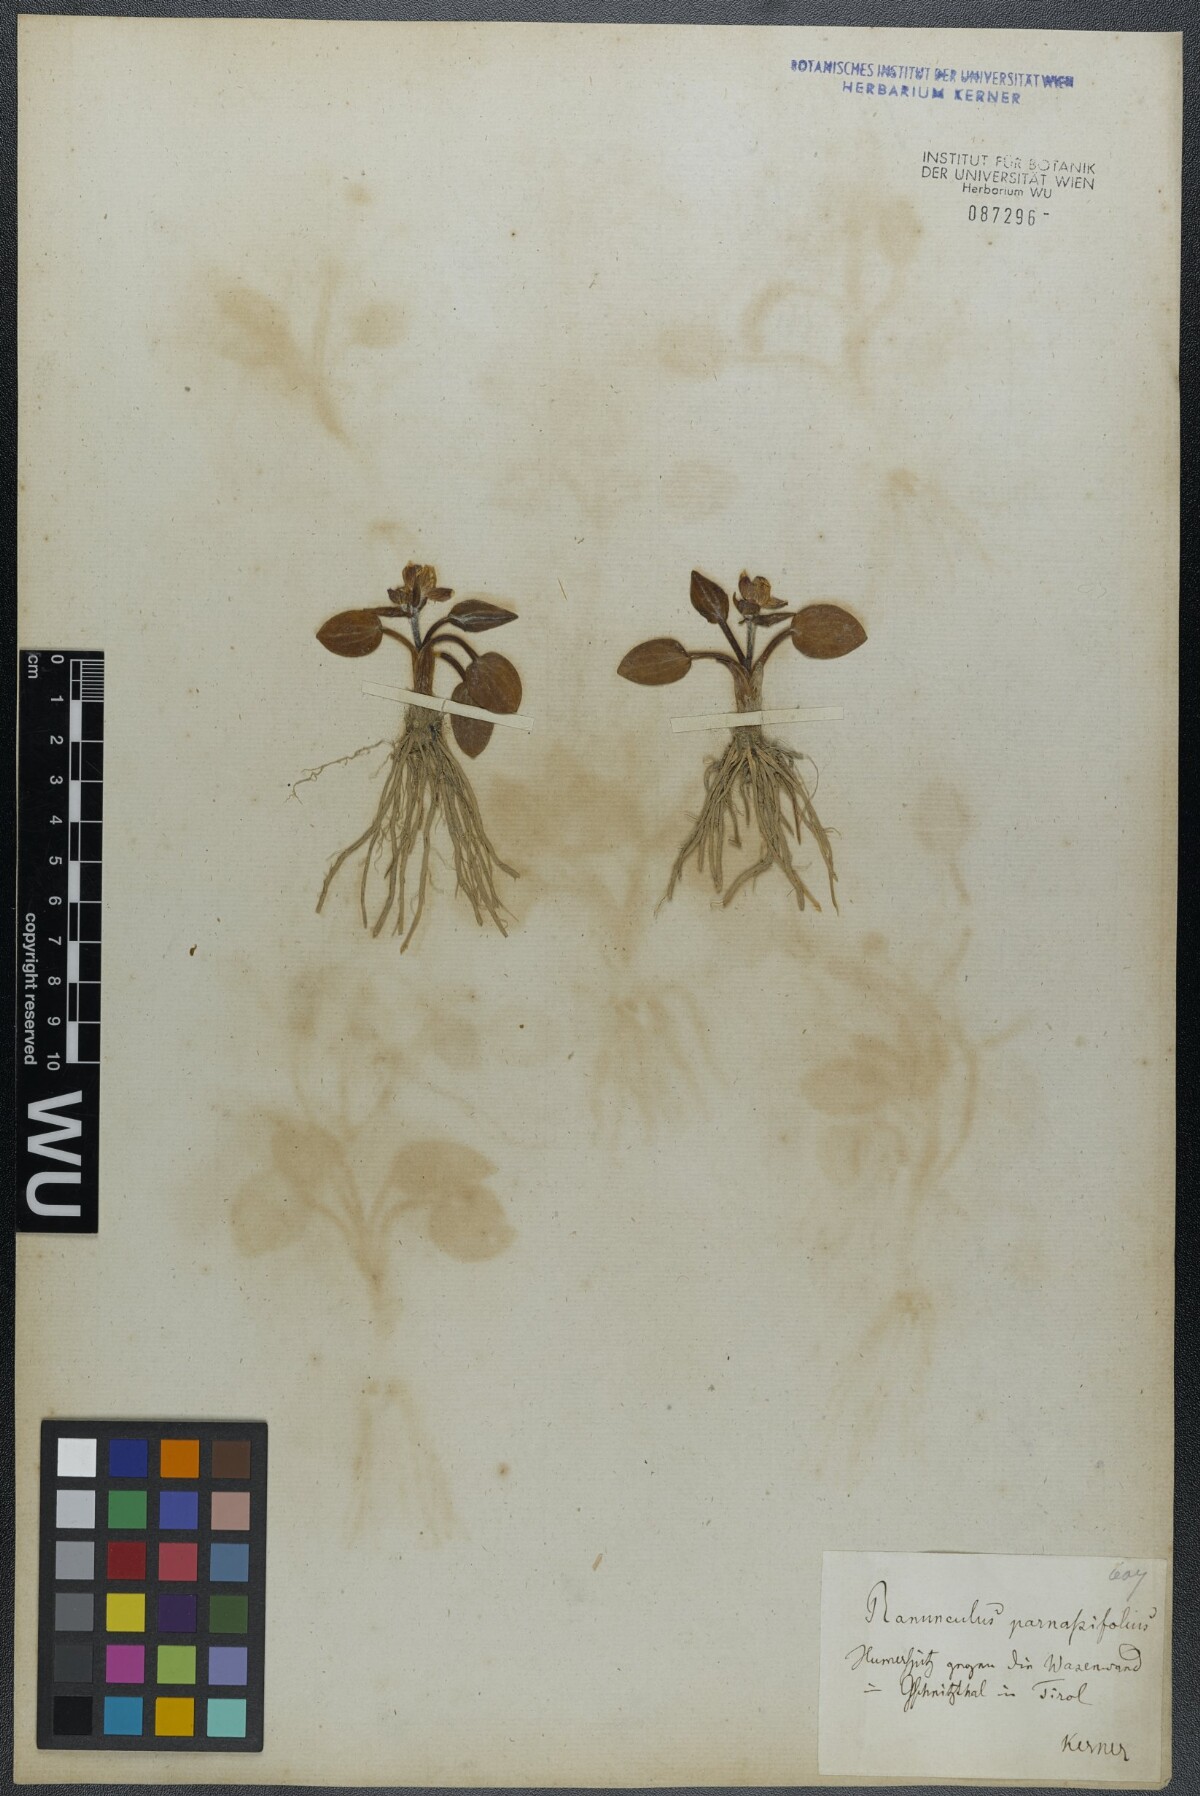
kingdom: Plantae
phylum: Tracheophyta
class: Magnoliopsida
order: Ranunculales
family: Ranunculaceae
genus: Ranunculus
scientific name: Ranunculus parnassiifolius
